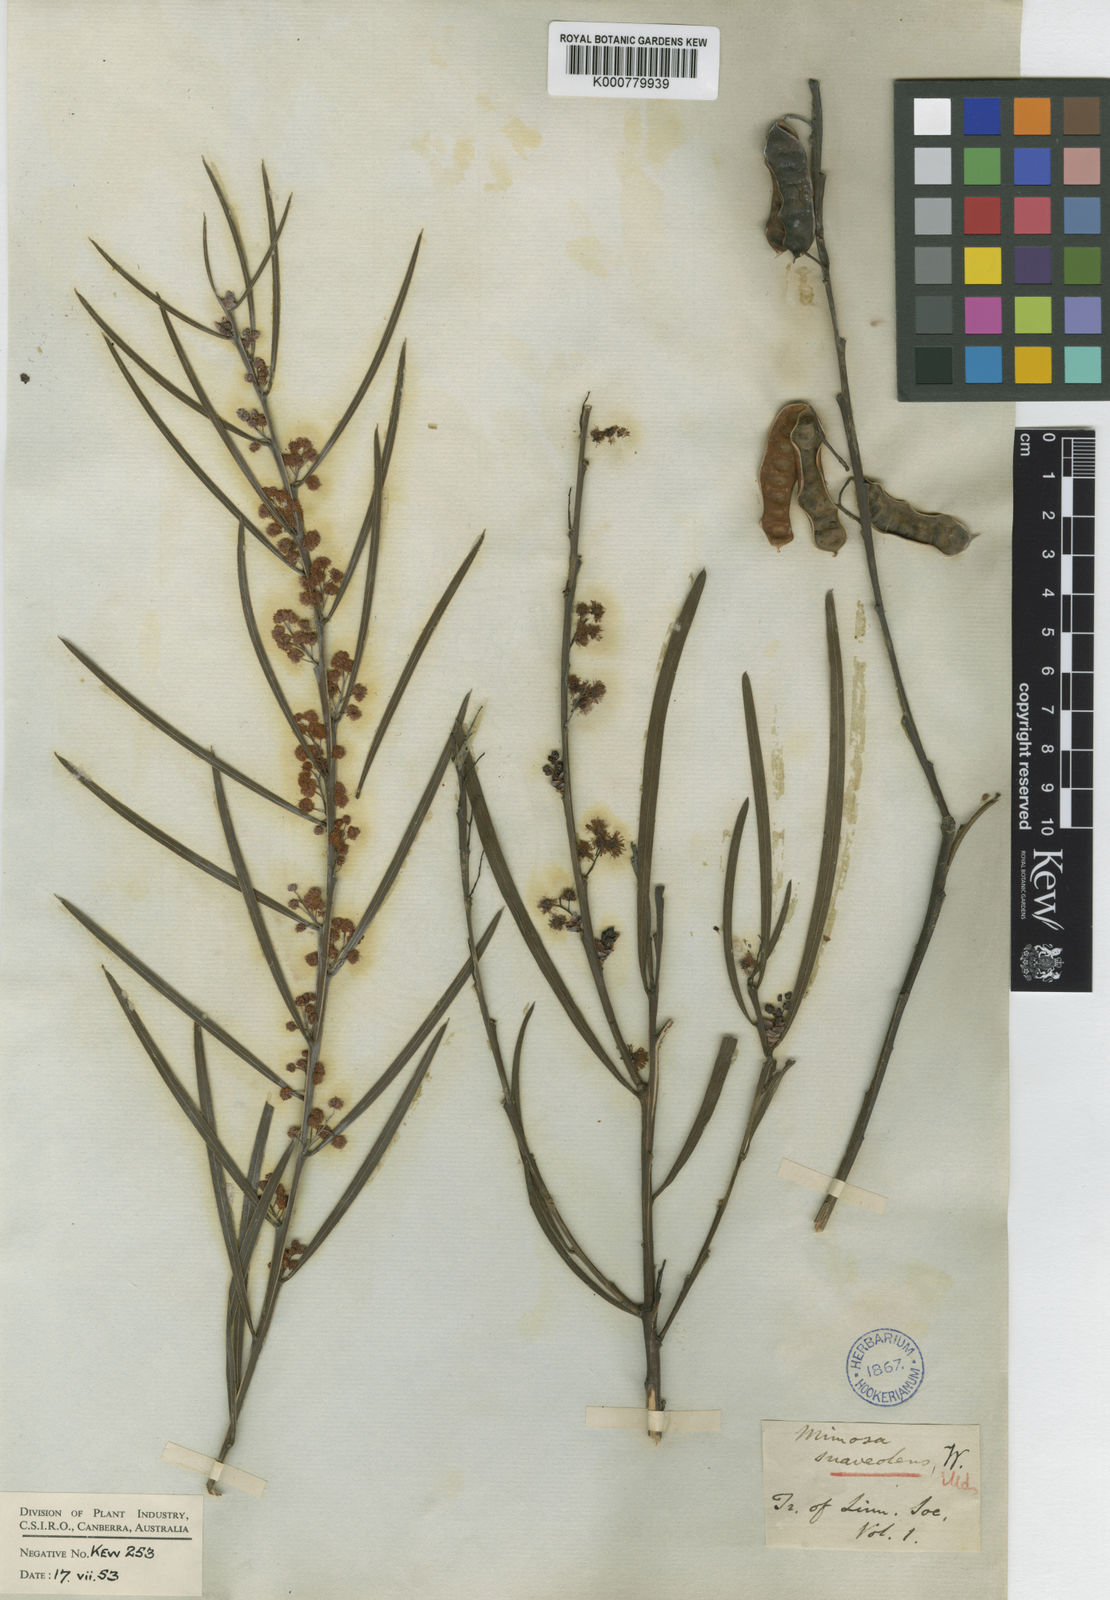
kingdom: Plantae
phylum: Tracheophyta
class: Magnoliopsida
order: Fabales
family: Fabaceae
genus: Acacia
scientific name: Acacia suaveolens
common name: Sweet acacia
